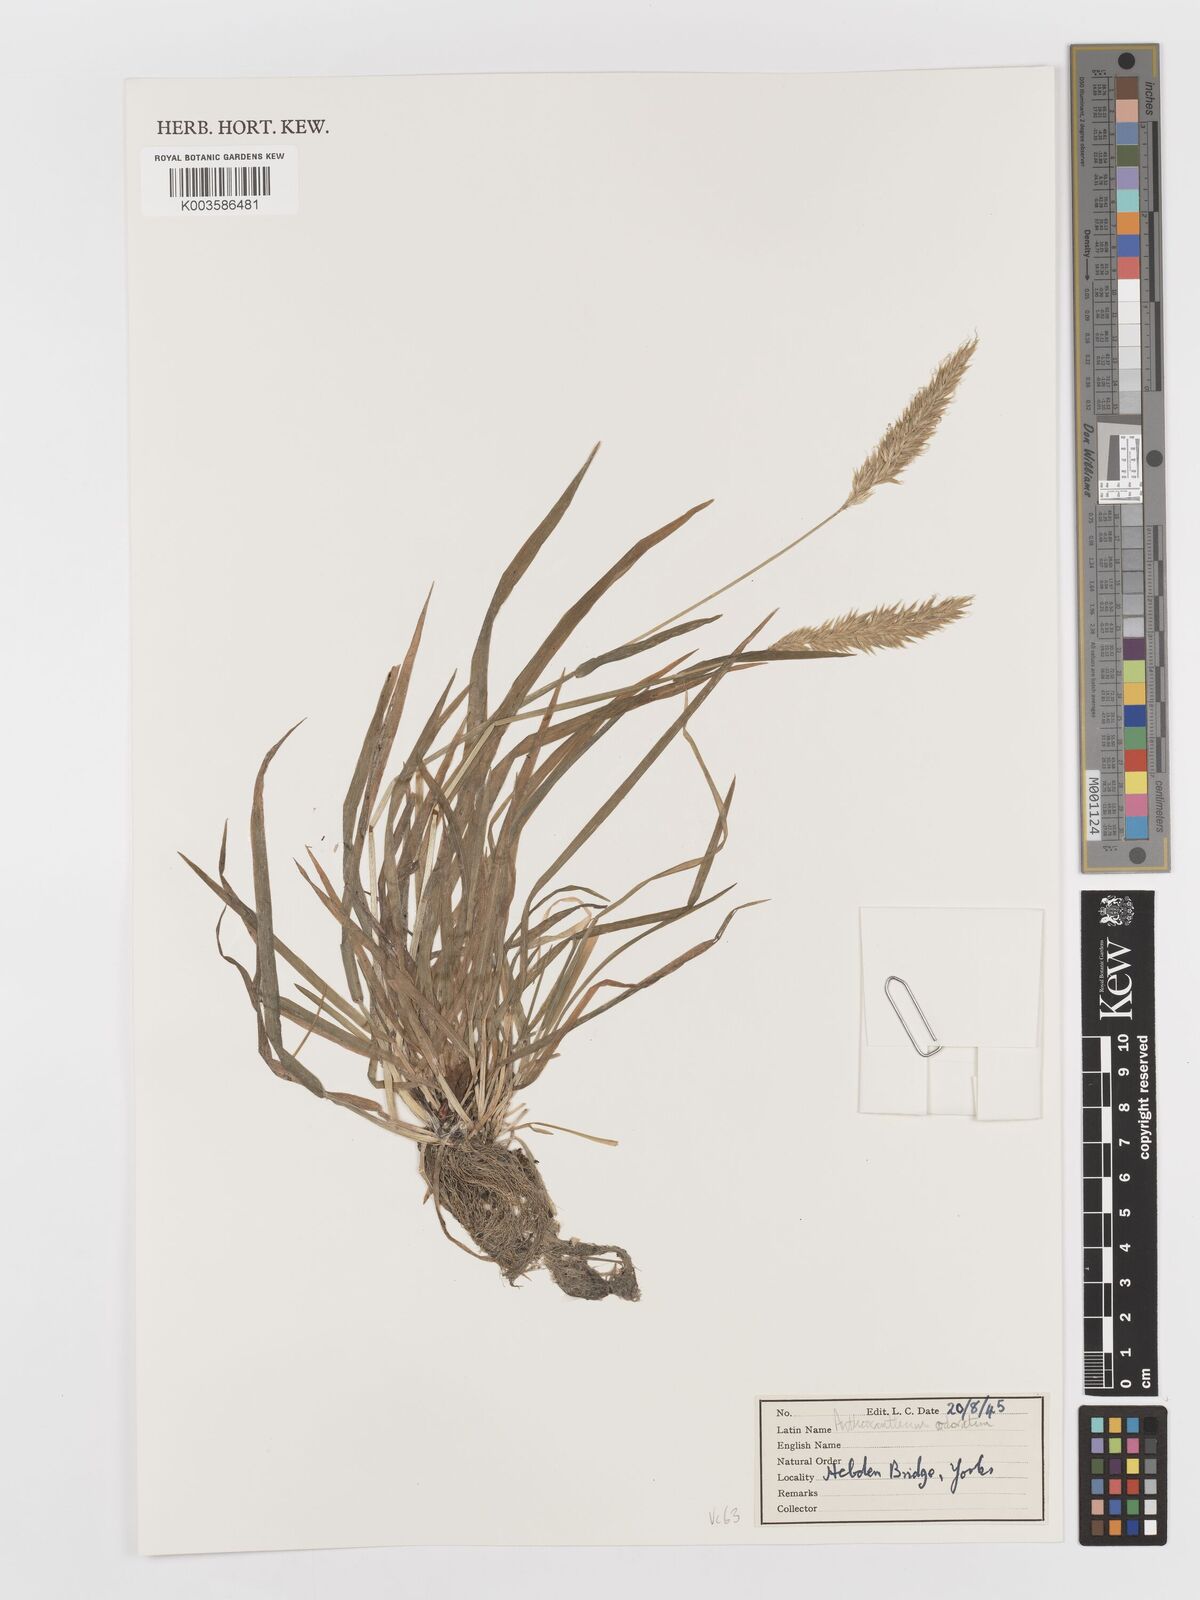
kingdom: Plantae
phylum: Tracheophyta
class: Liliopsida
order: Poales
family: Poaceae
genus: Anthoxanthum
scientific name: Anthoxanthum odoratum
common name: Sweet vernalgrass
